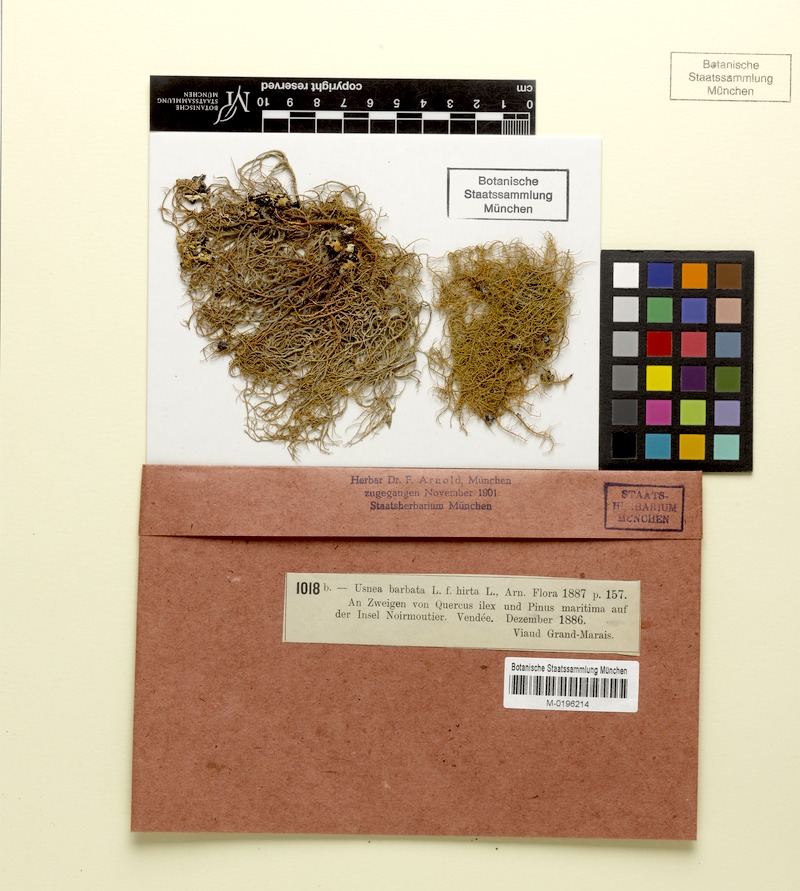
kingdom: Fungi
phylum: Ascomycota
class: Lecanoromycetes
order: Lecanorales
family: Parmeliaceae
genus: Usnea
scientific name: Usnea hirta
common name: Bristly beard lichen
